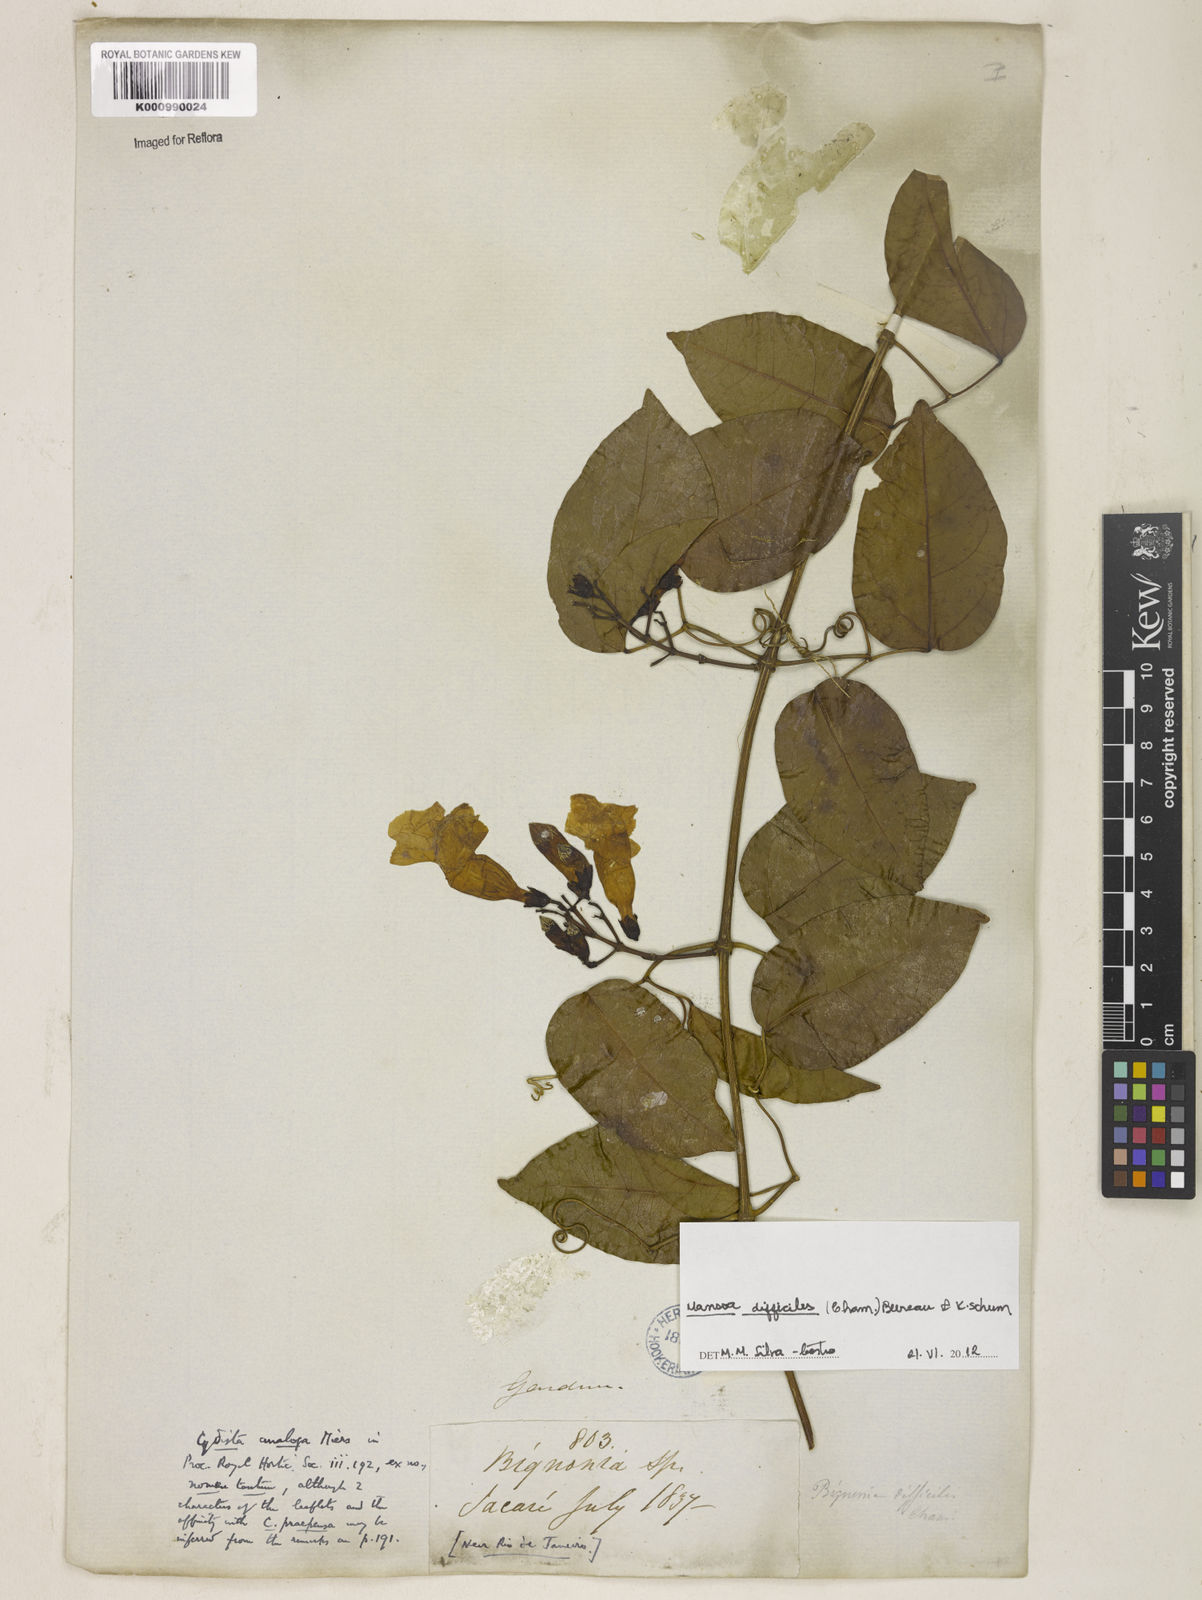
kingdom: Plantae
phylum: Tracheophyta
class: Magnoliopsida
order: Lamiales
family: Bignoniaceae
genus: Mansoa
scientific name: Mansoa difficilis
